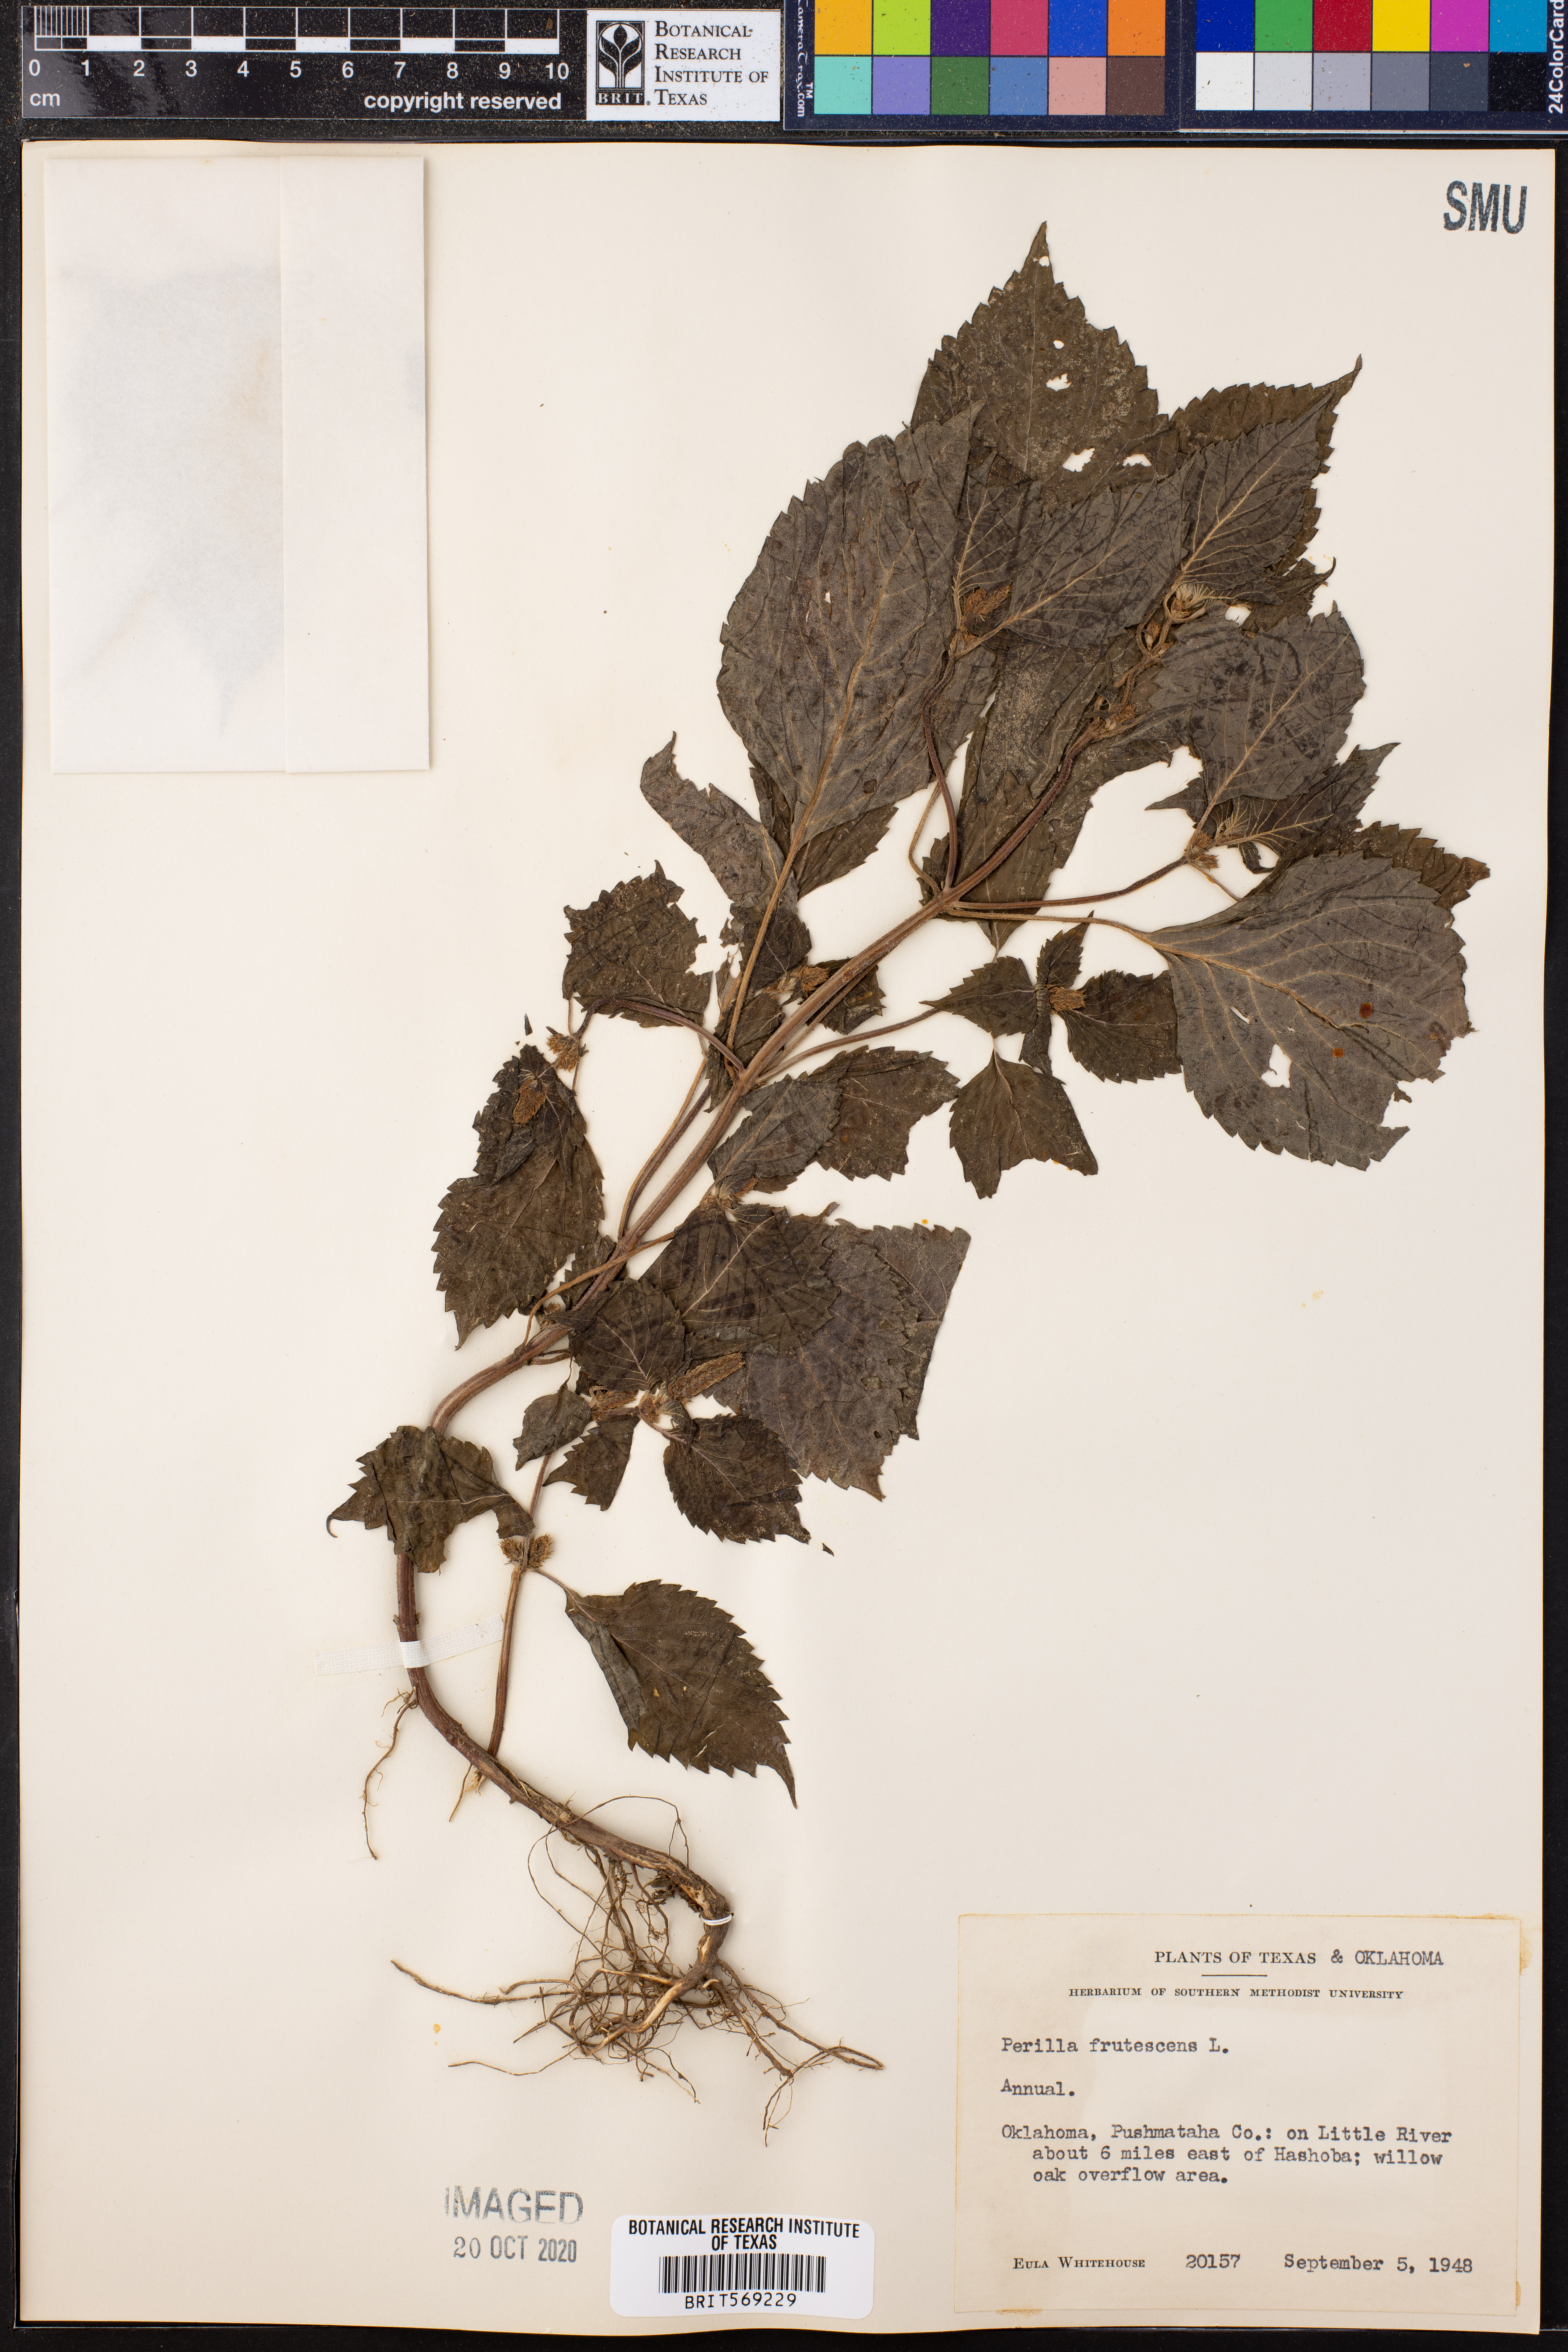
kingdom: Plantae
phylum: Tracheophyta
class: Magnoliopsida
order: Lamiales
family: Lamiaceae
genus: Perilla
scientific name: Perilla frutescens
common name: Perilla
